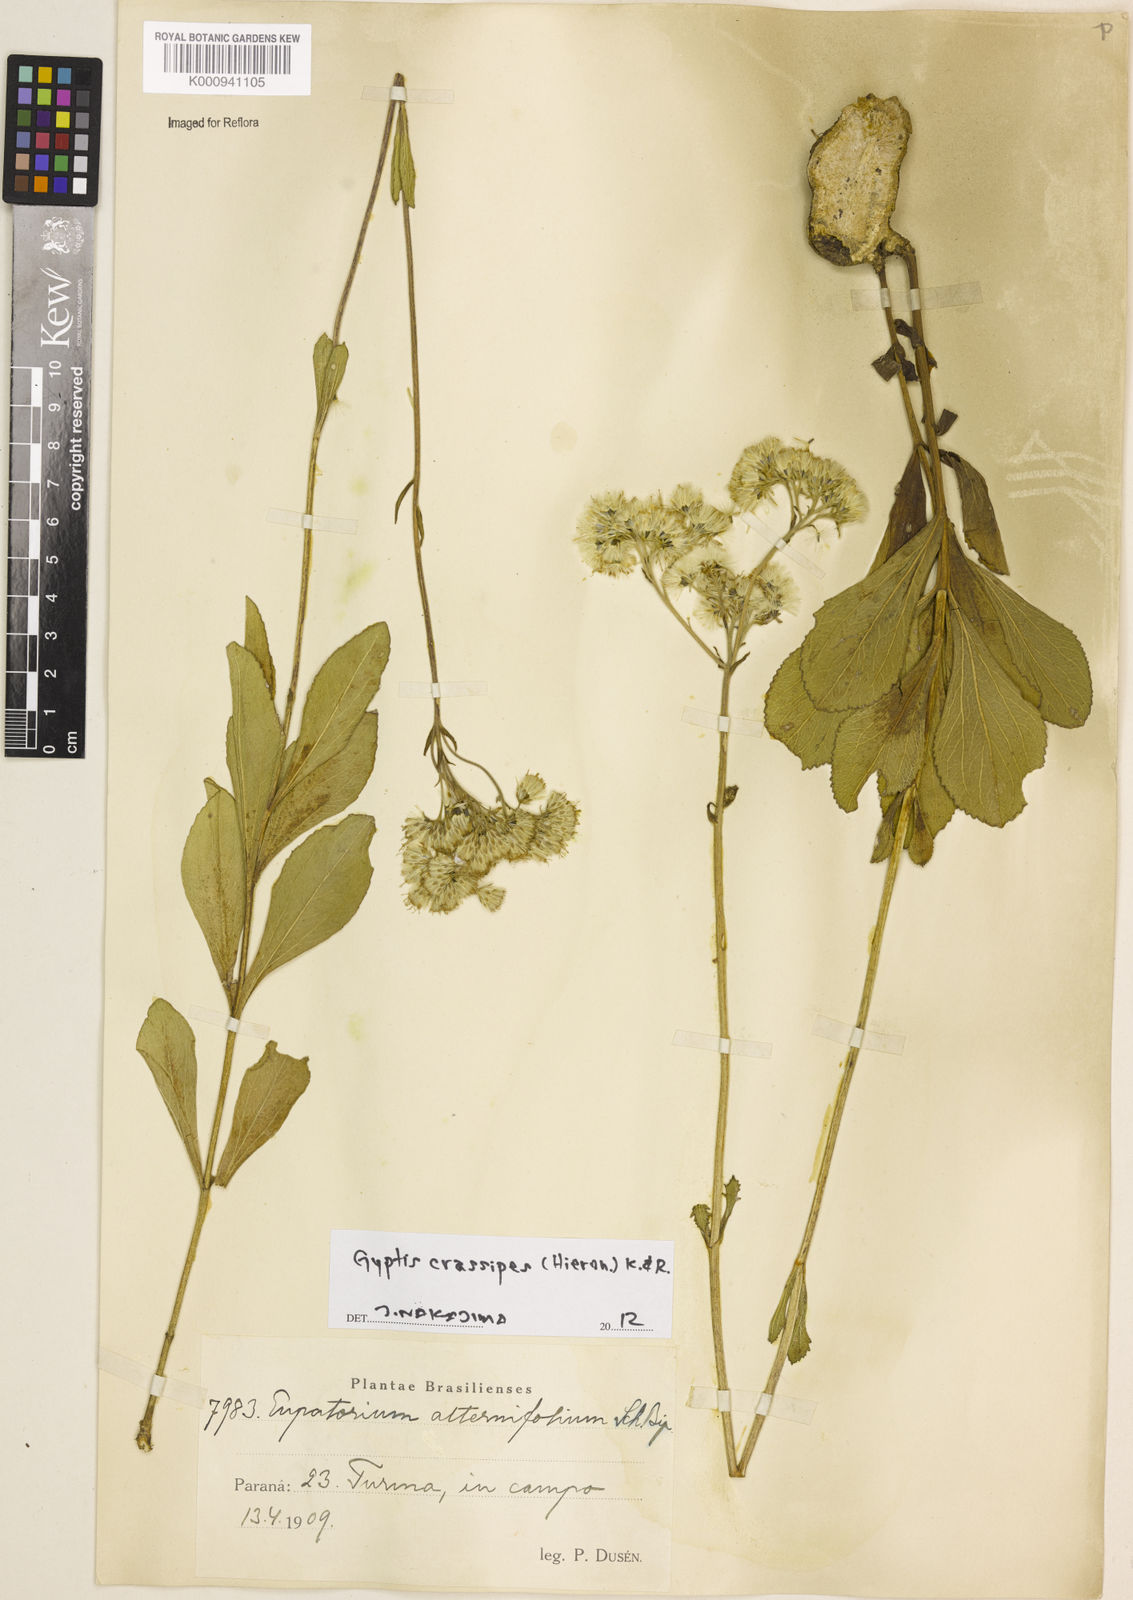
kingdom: Plantae
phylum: Tracheophyta
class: Magnoliopsida
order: Asterales
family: Asteraceae
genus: Gyptis
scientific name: Gyptis crassipes
